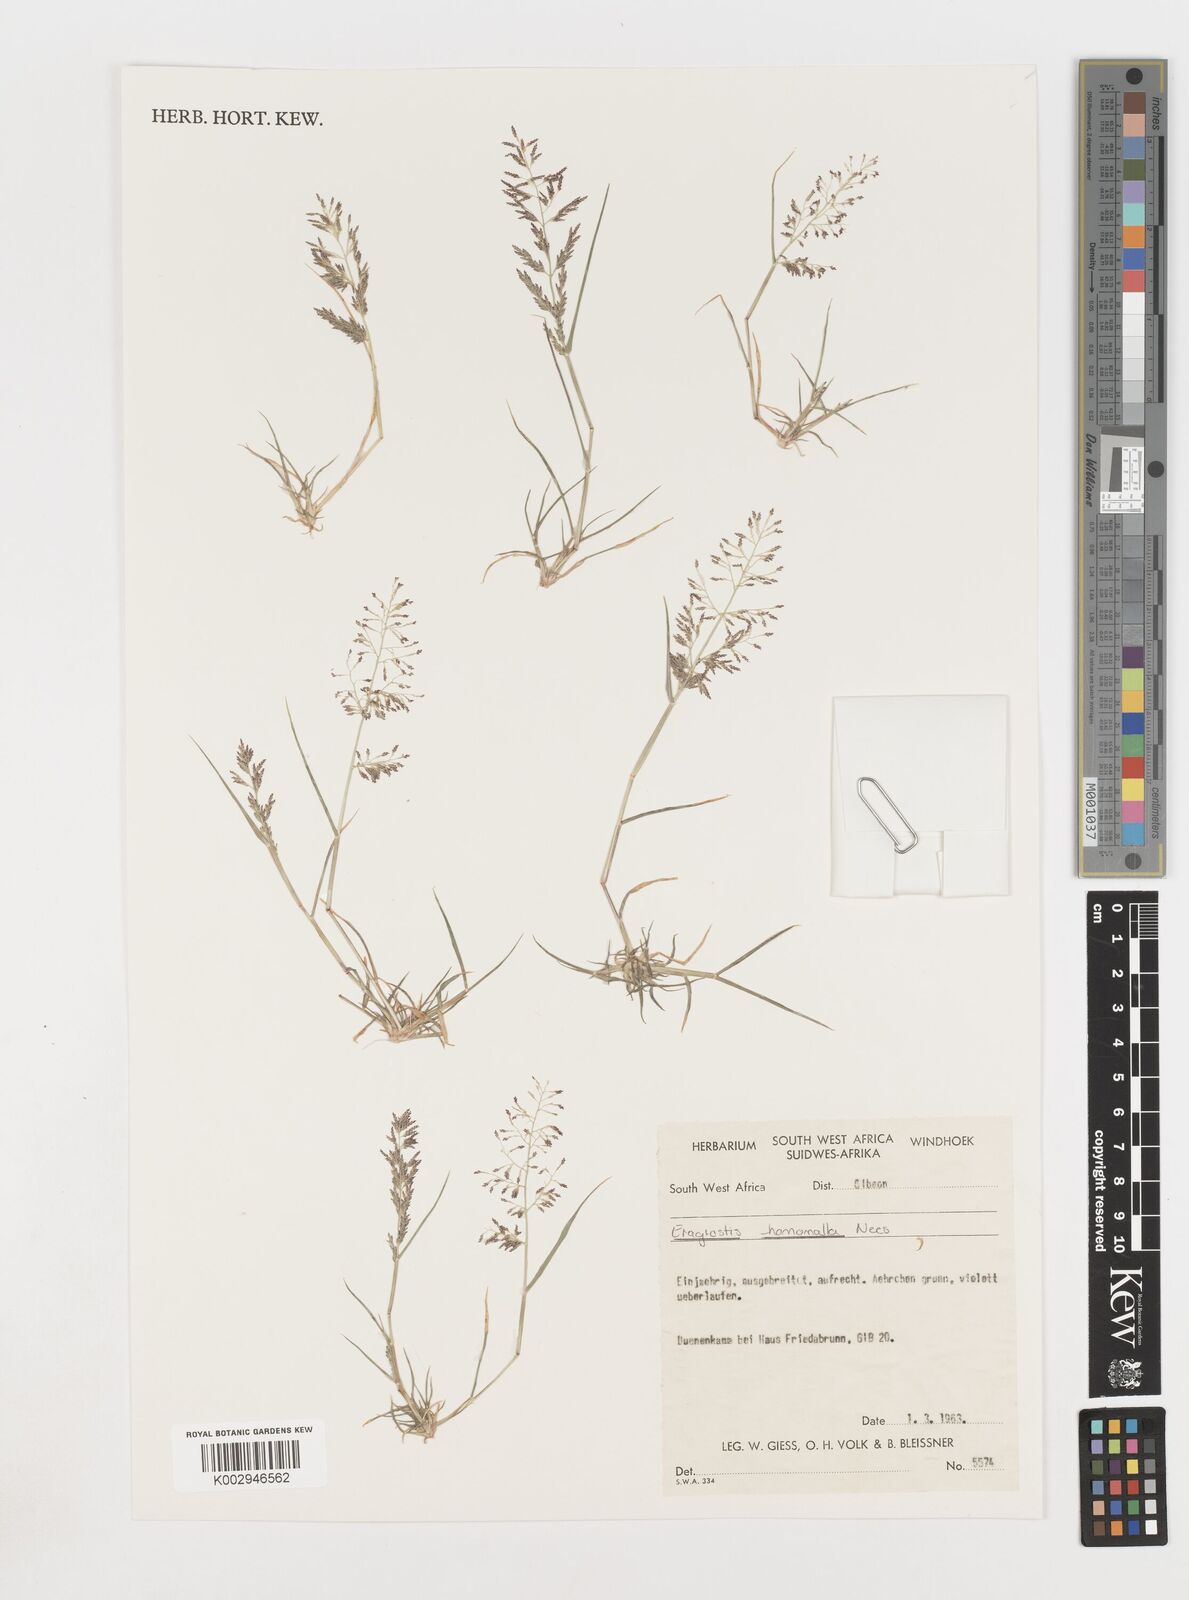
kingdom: Plantae
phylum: Tracheophyta
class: Liliopsida
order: Poales
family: Poaceae
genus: Eragrostis
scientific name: Eragrostis homomalla
